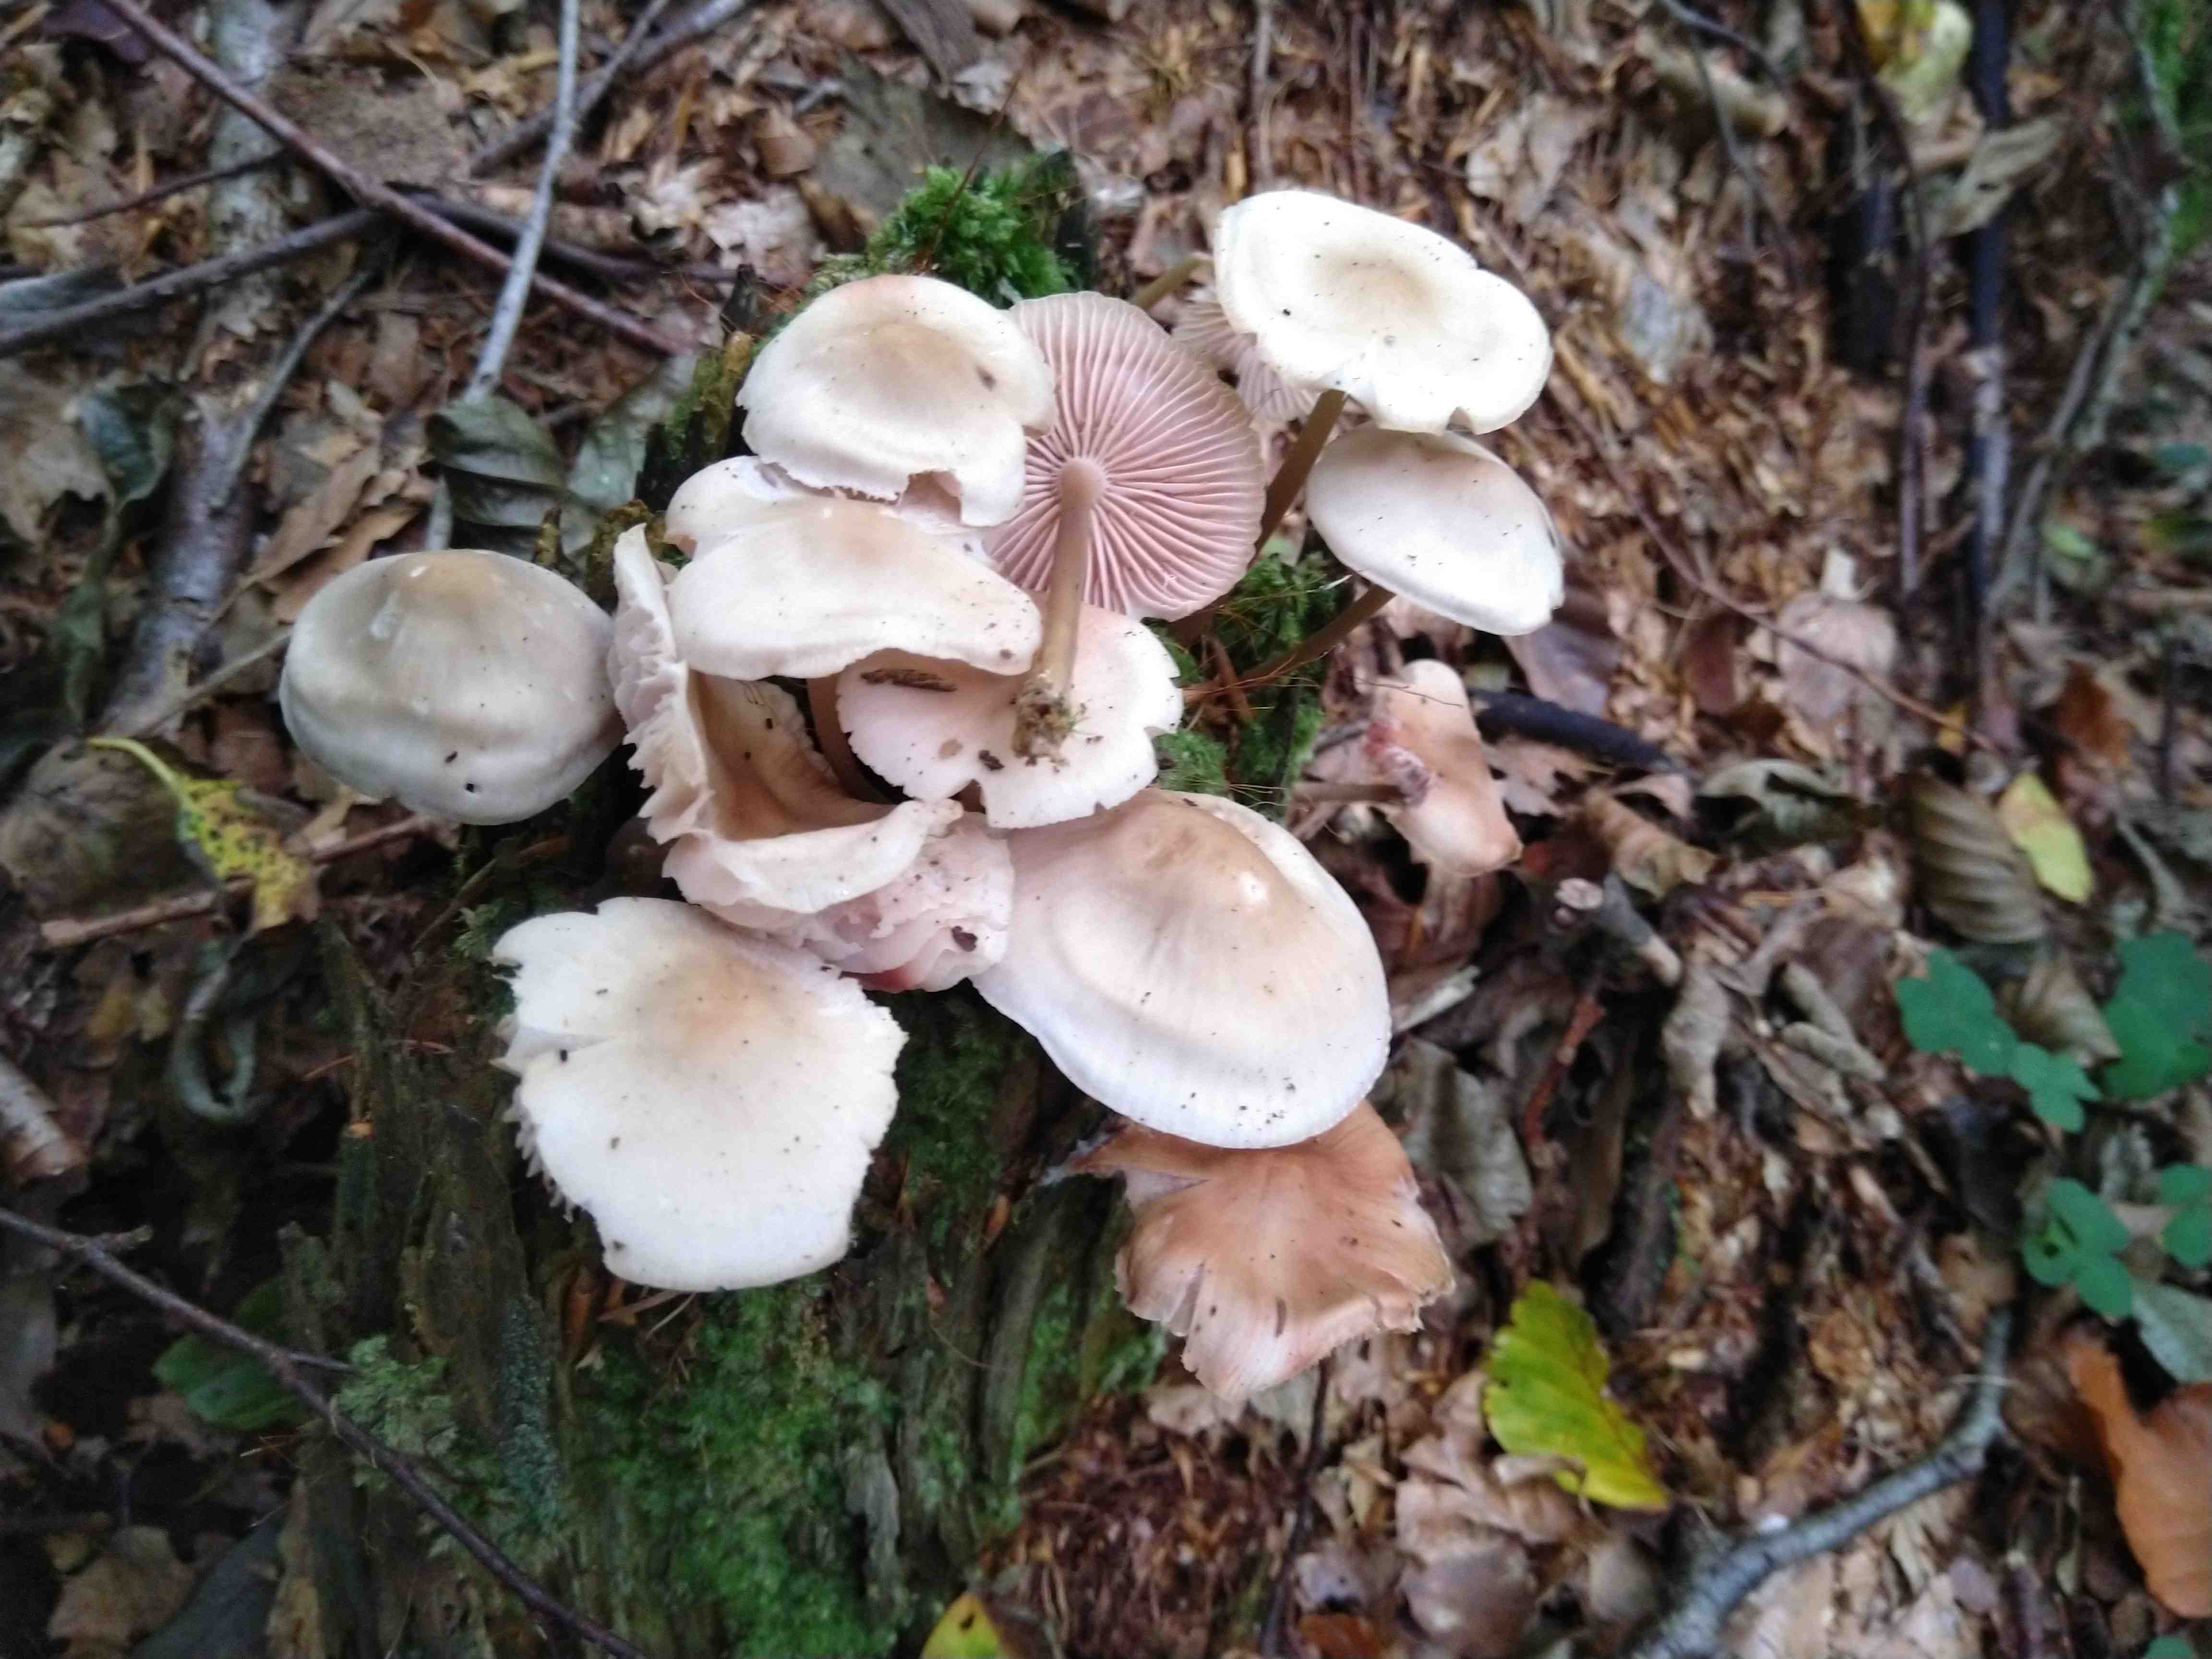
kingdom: Fungi
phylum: Basidiomycota
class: Agaricomycetes
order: Agaricales
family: Mycenaceae
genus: Mycena
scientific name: Mycena galericulata
